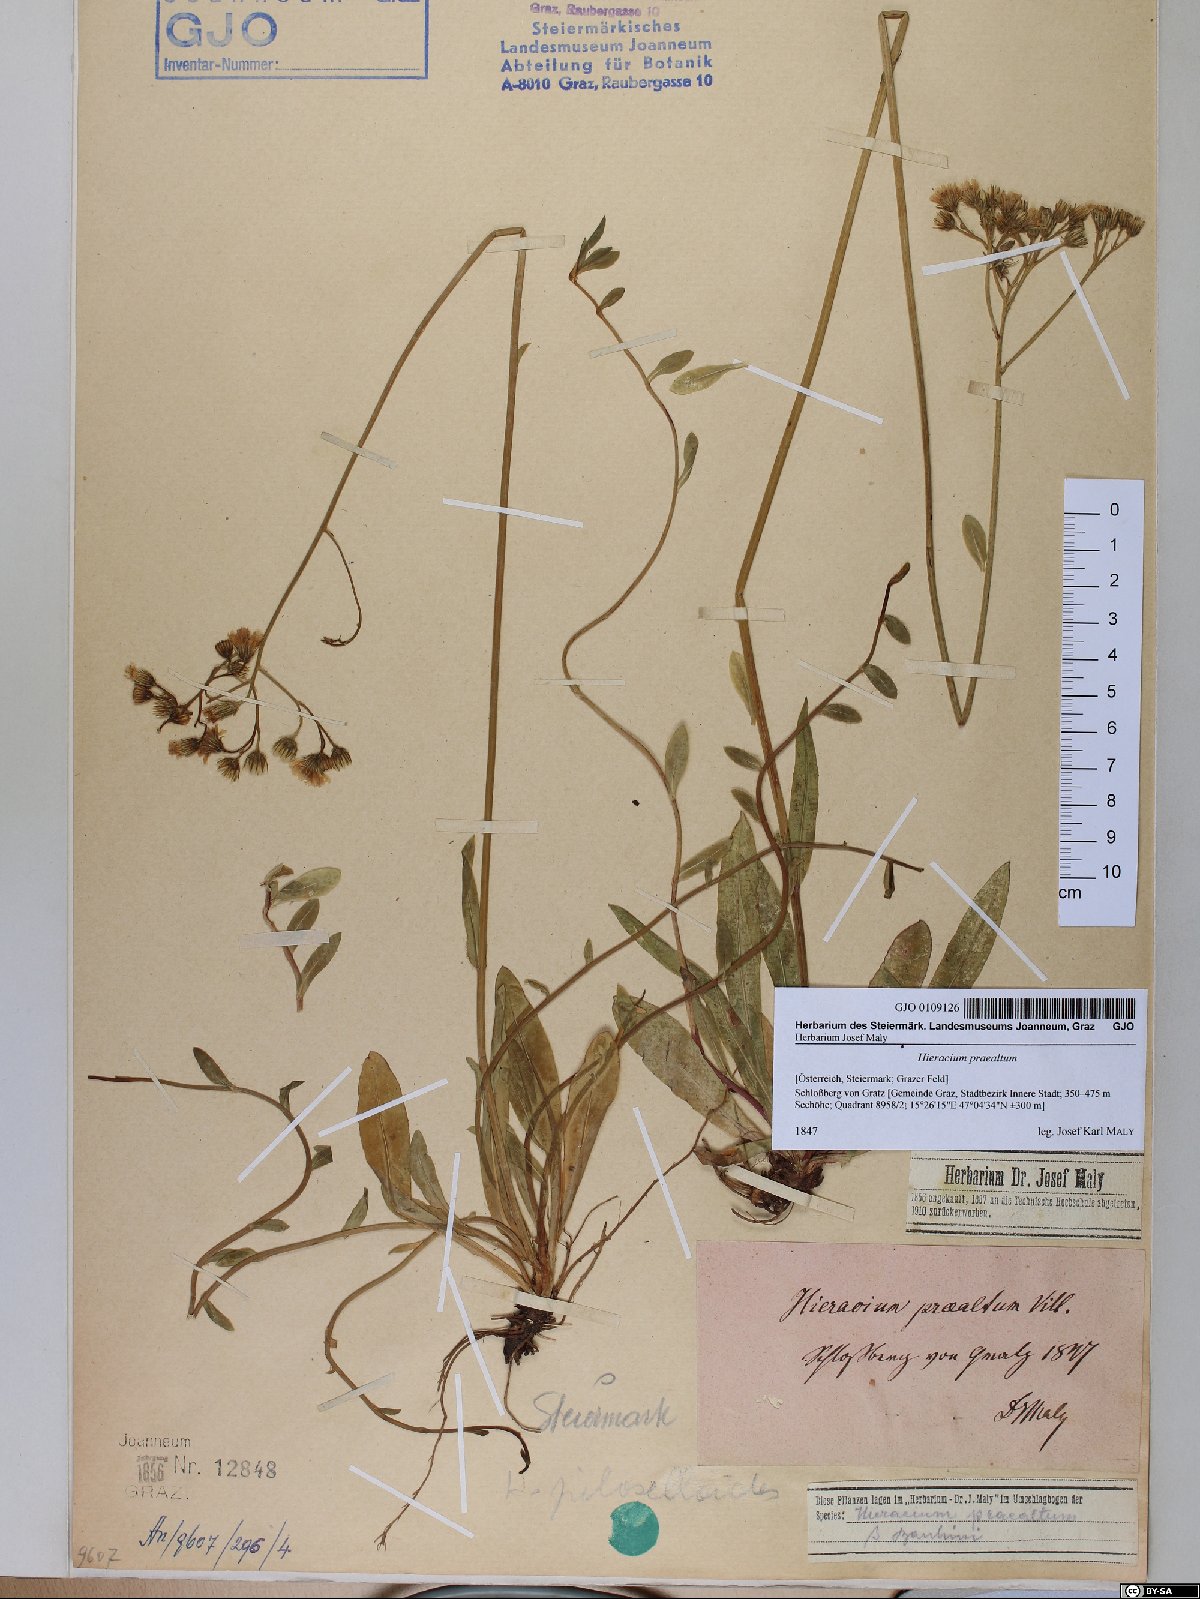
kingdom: Plantae
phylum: Tracheophyta
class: Magnoliopsida
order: Asterales
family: Asteraceae
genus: Pilosella
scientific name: Pilosella piloselloides
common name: Glaucous king-devil
